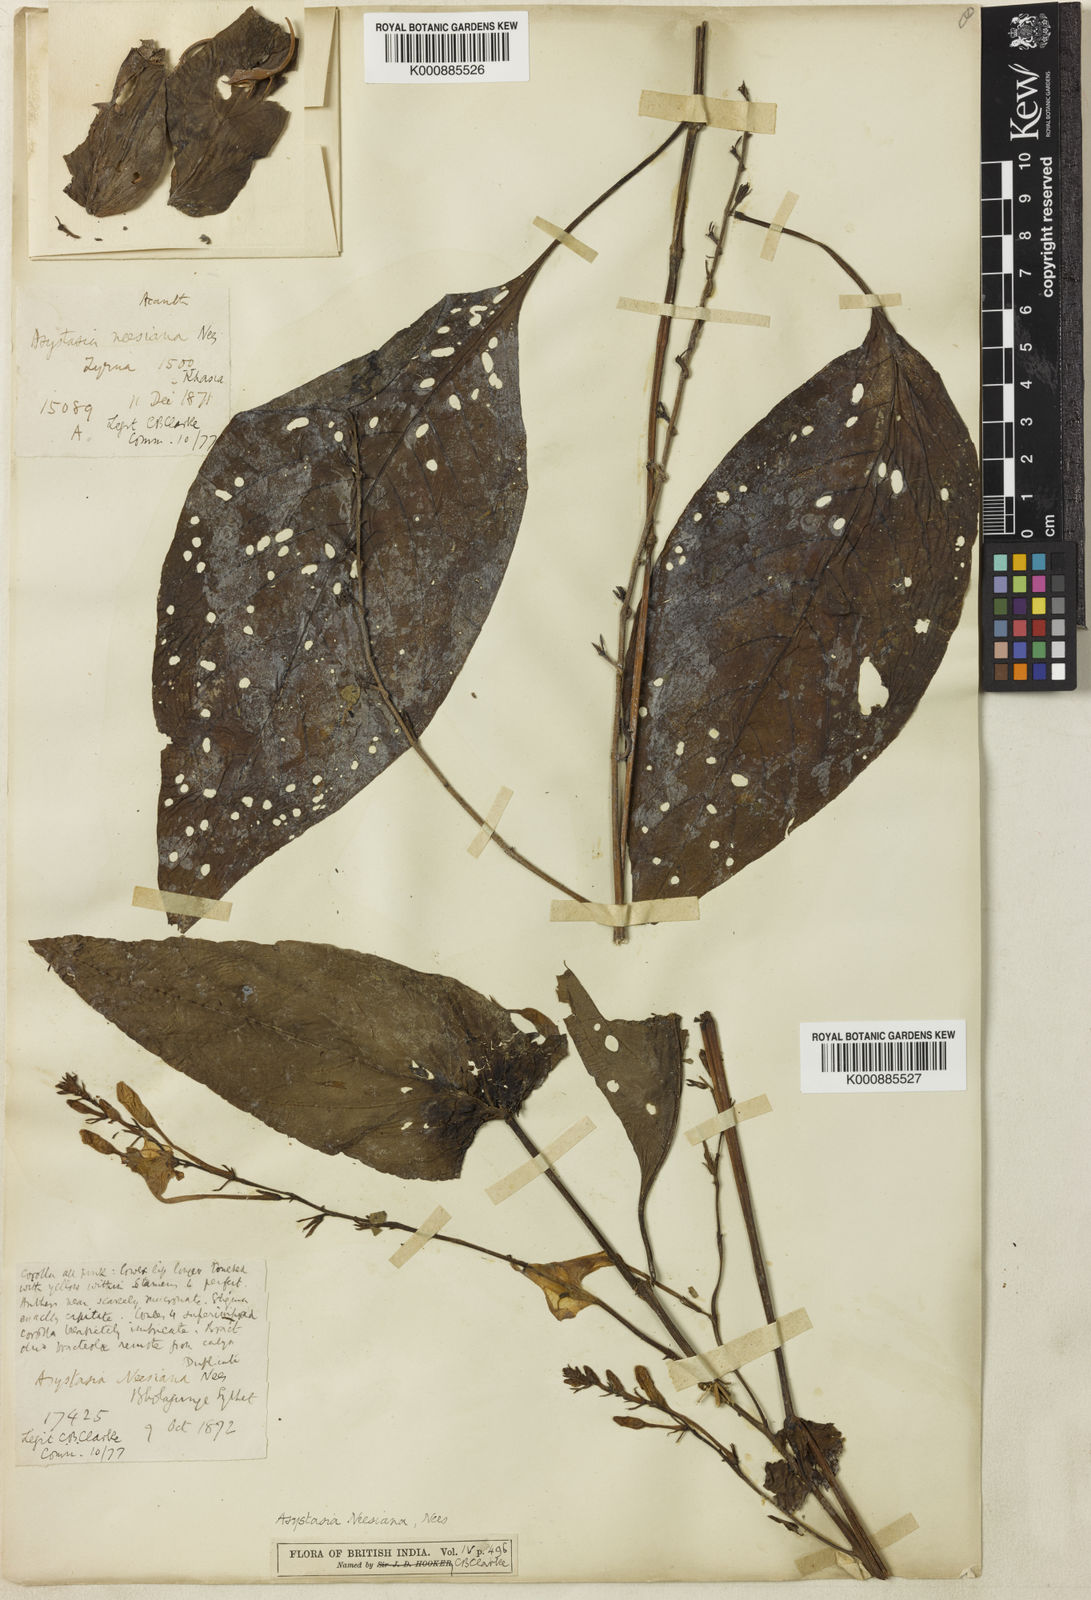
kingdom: Plantae
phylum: Tracheophyta
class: Magnoliopsida
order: Lamiales
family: Acanthaceae
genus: Mackaya
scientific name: Mackaya neesiana
